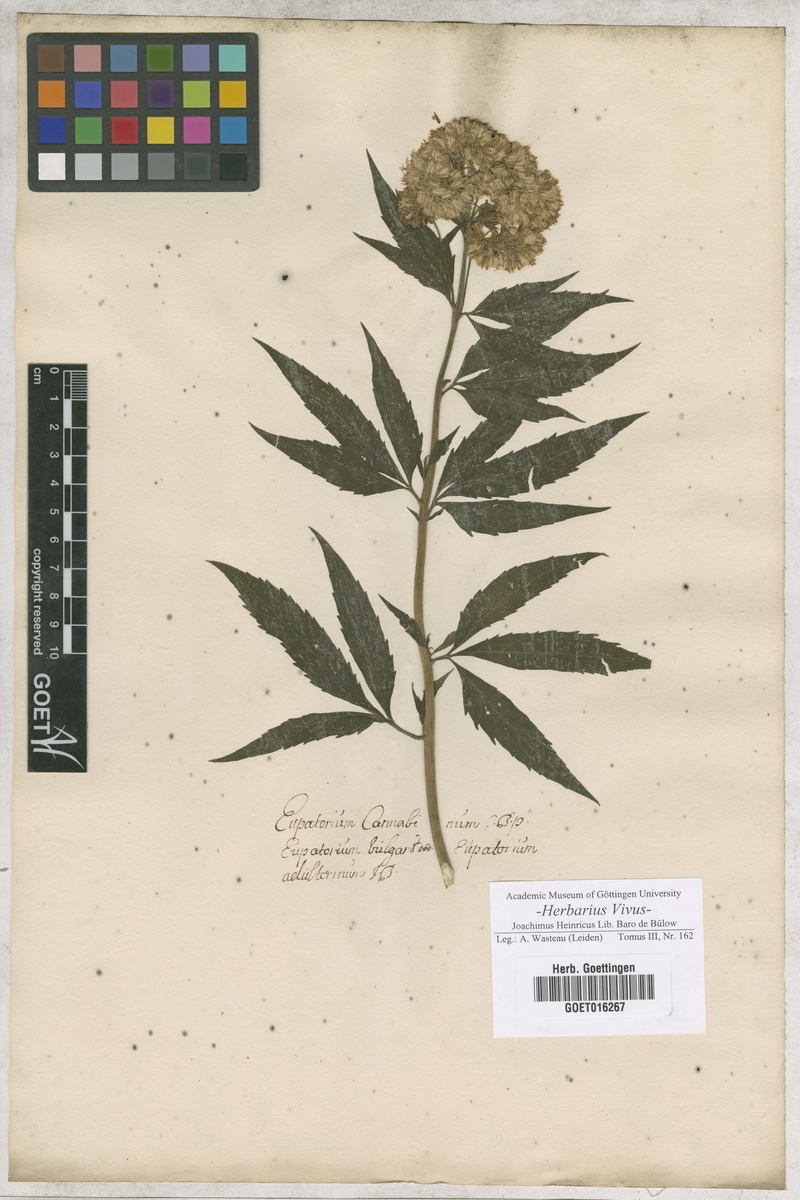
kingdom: Plantae
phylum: Tracheophyta
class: Magnoliopsida
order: Asterales
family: Asteraceae
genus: Eupatorium
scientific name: Eupatorium cannabinum
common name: Hemp-agrimony
